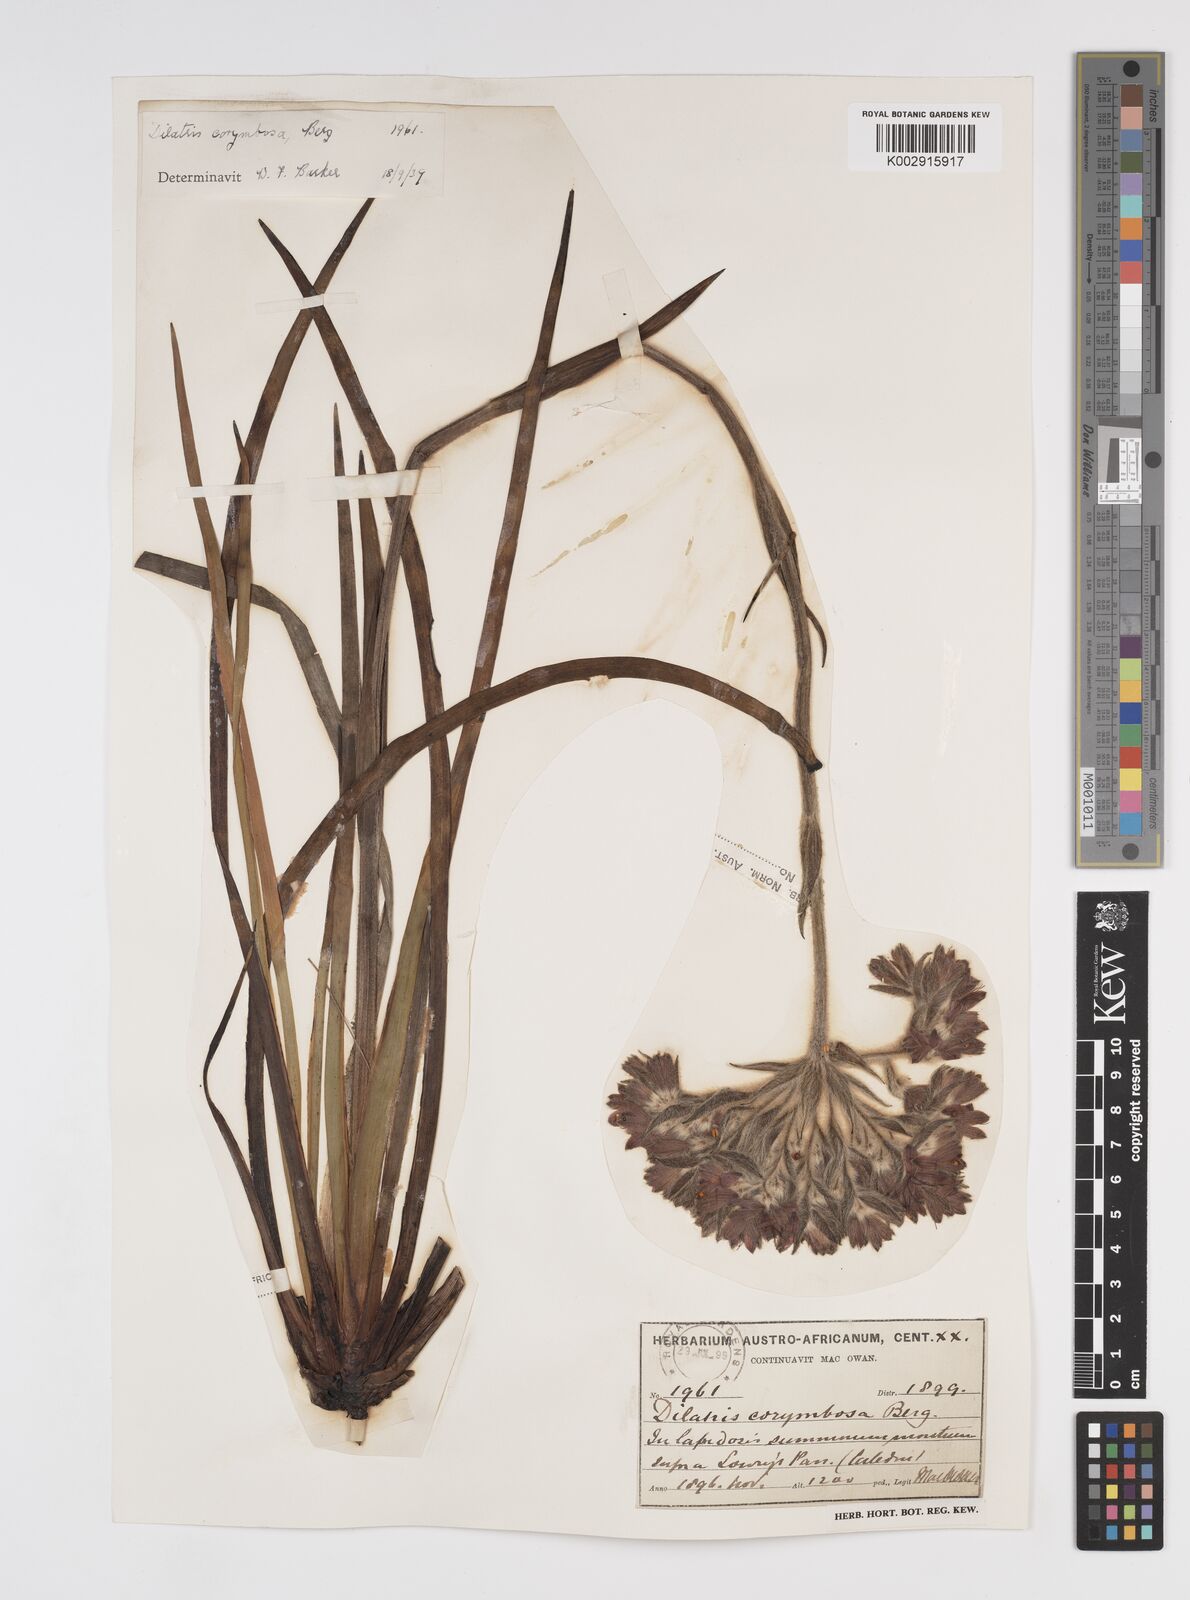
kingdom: Plantae
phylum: Tracheophyta
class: Liliopsida
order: Commelinales
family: Haemodoraceae
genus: Dilatris
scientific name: Dilatris corymbosa
